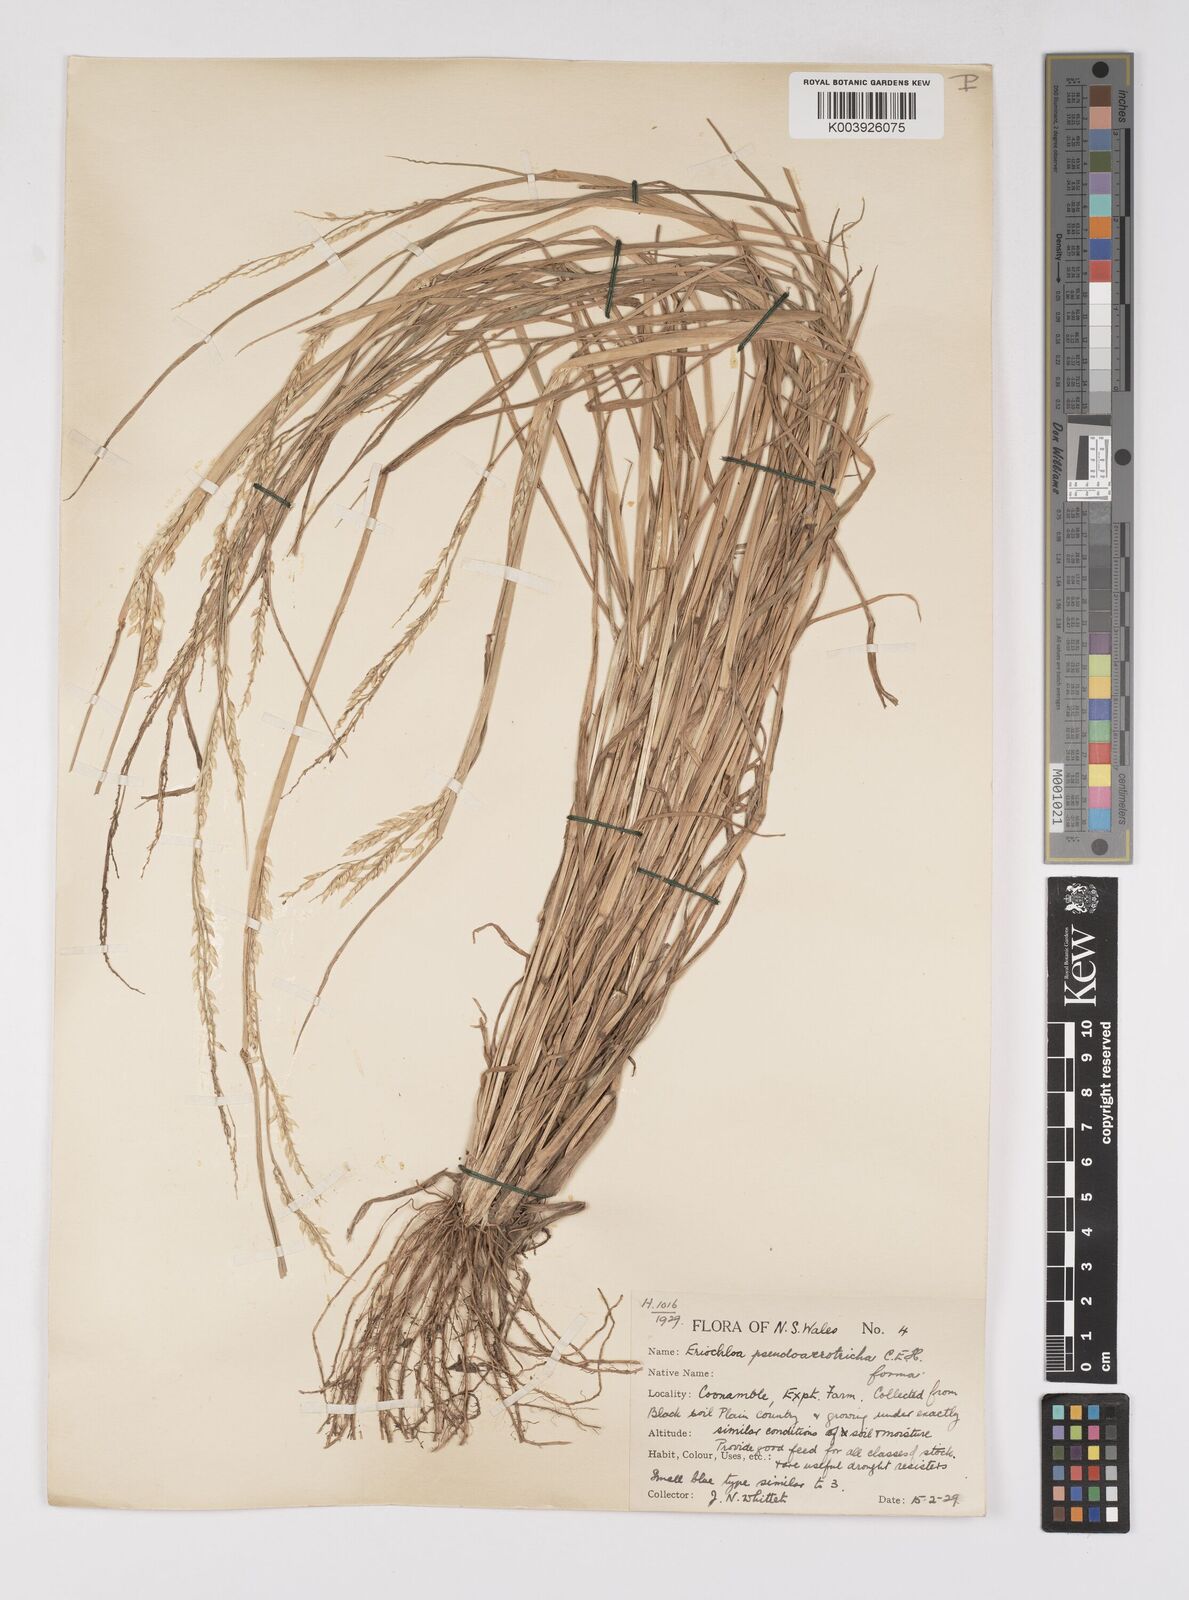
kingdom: Plantae
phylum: Tracheophyta
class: Liliopsida
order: Poales
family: Poaceae
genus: Eriochloa
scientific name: Eriochloa pseudoacrotricha
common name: Perennial cup-grass
